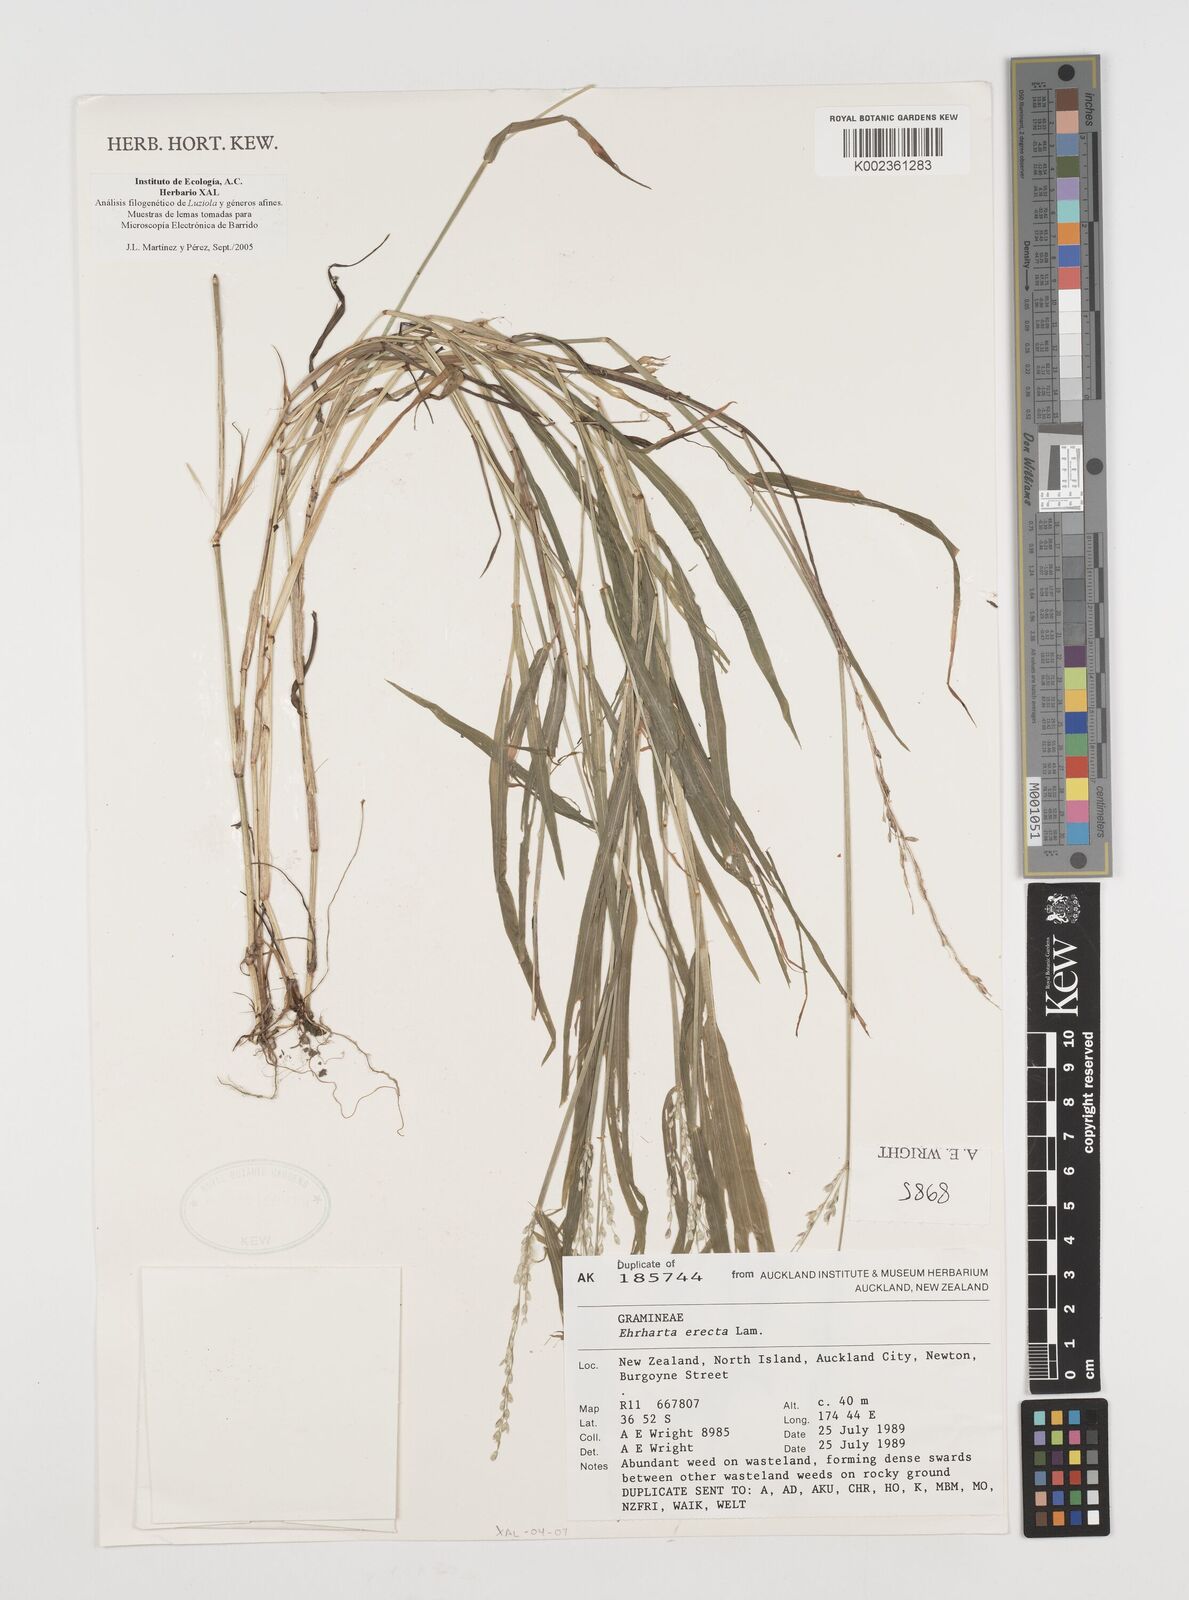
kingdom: Plantae
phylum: Tracheophyta
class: Liliopsida
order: Poales
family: Poaceae
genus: Ehrharta
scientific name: Ehrharta erecta
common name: Panic veldtgrass
